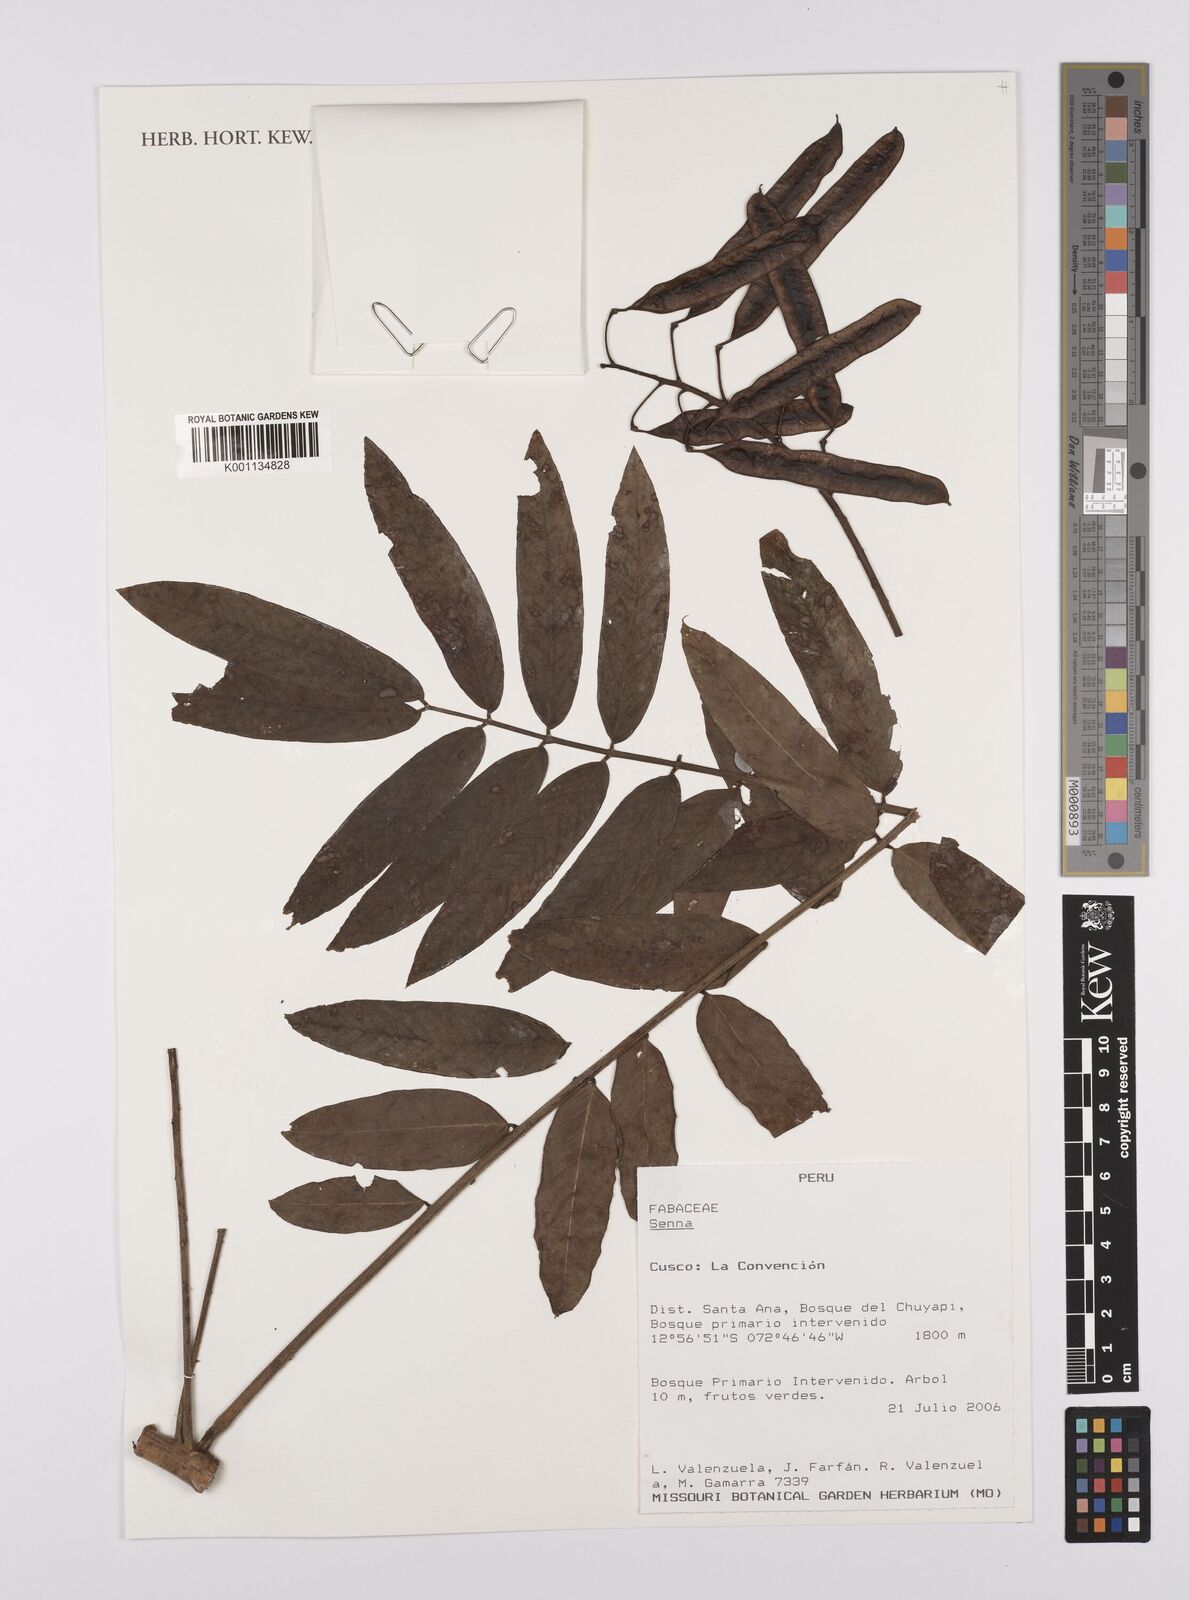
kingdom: Plantae
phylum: Tracheophyta
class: Magnoliopsida
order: Fabales
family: Fabaceae
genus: Senna
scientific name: Senna
